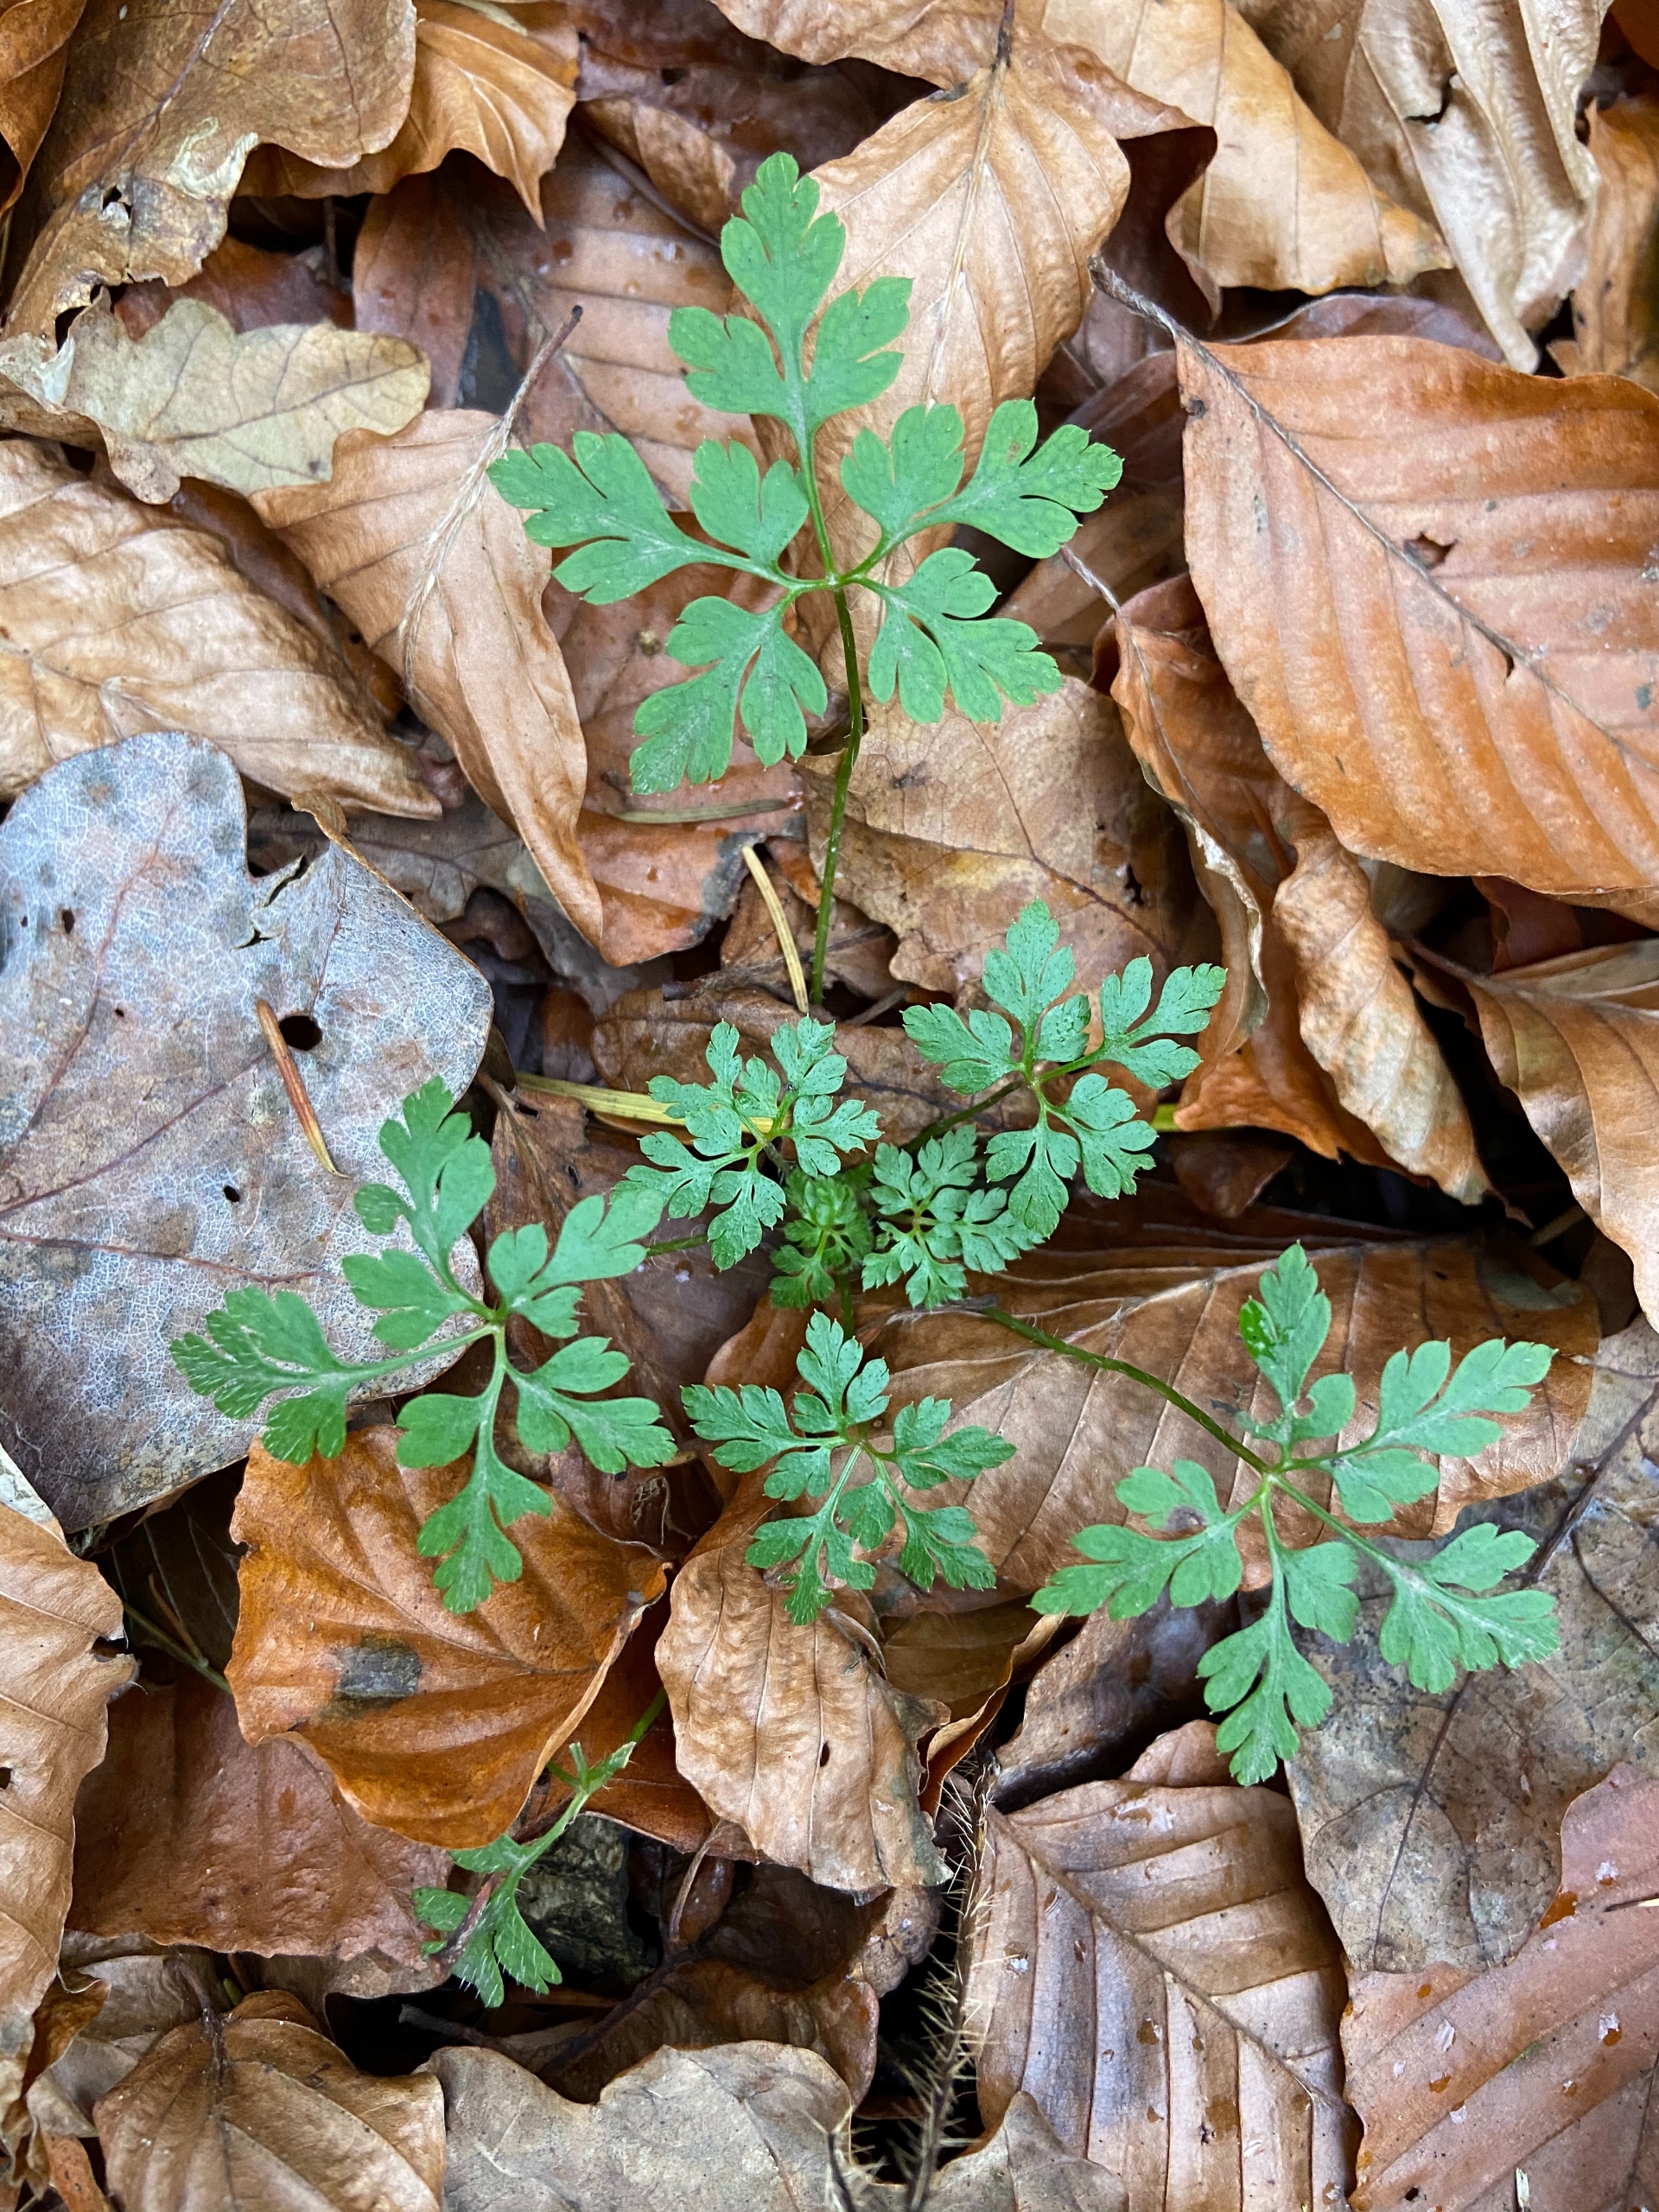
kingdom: Plantae
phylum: Tracheophyta
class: Magnoliopsida
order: Geraniales
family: Geraniaceae
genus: Geranium
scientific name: Geranium robertianum
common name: Stinkende storkenæb
